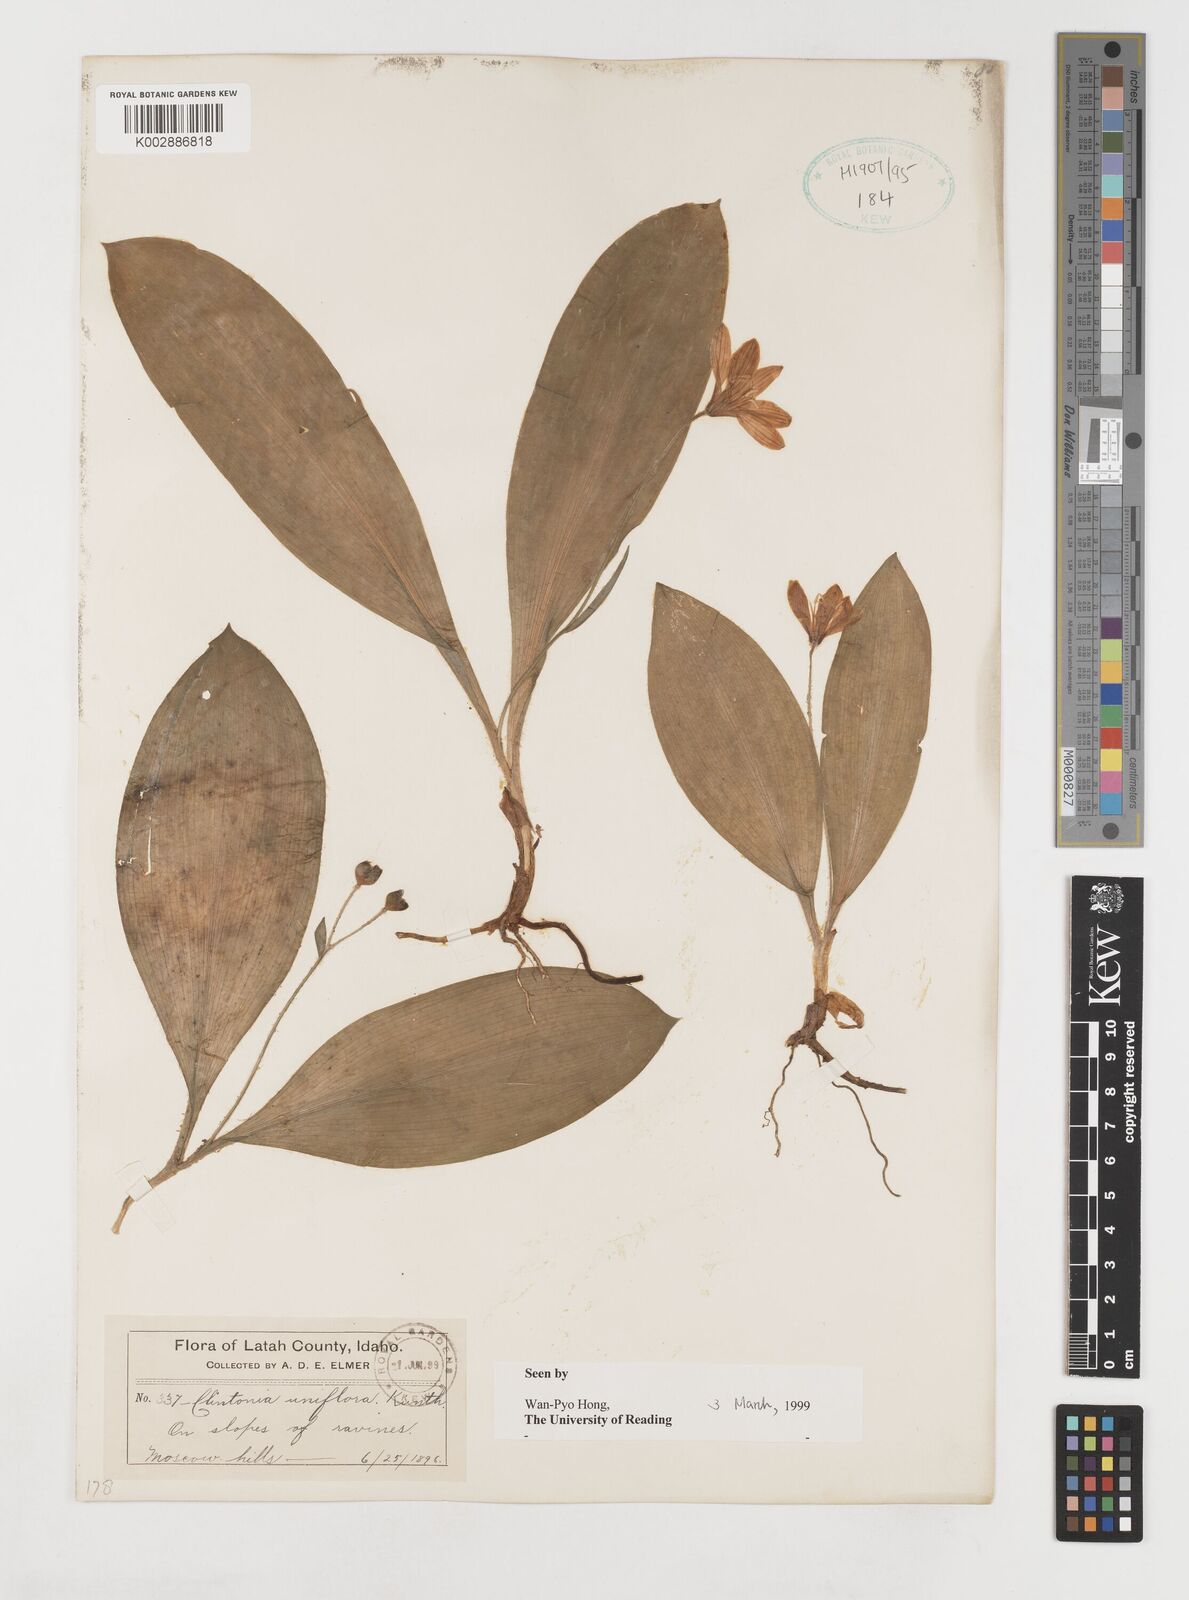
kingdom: Plantae
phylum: Tracheophyta
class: Liliopsida
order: Liliales
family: Liliaceae
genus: Clintonia
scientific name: Clintonia uniflora
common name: Queen's cup
